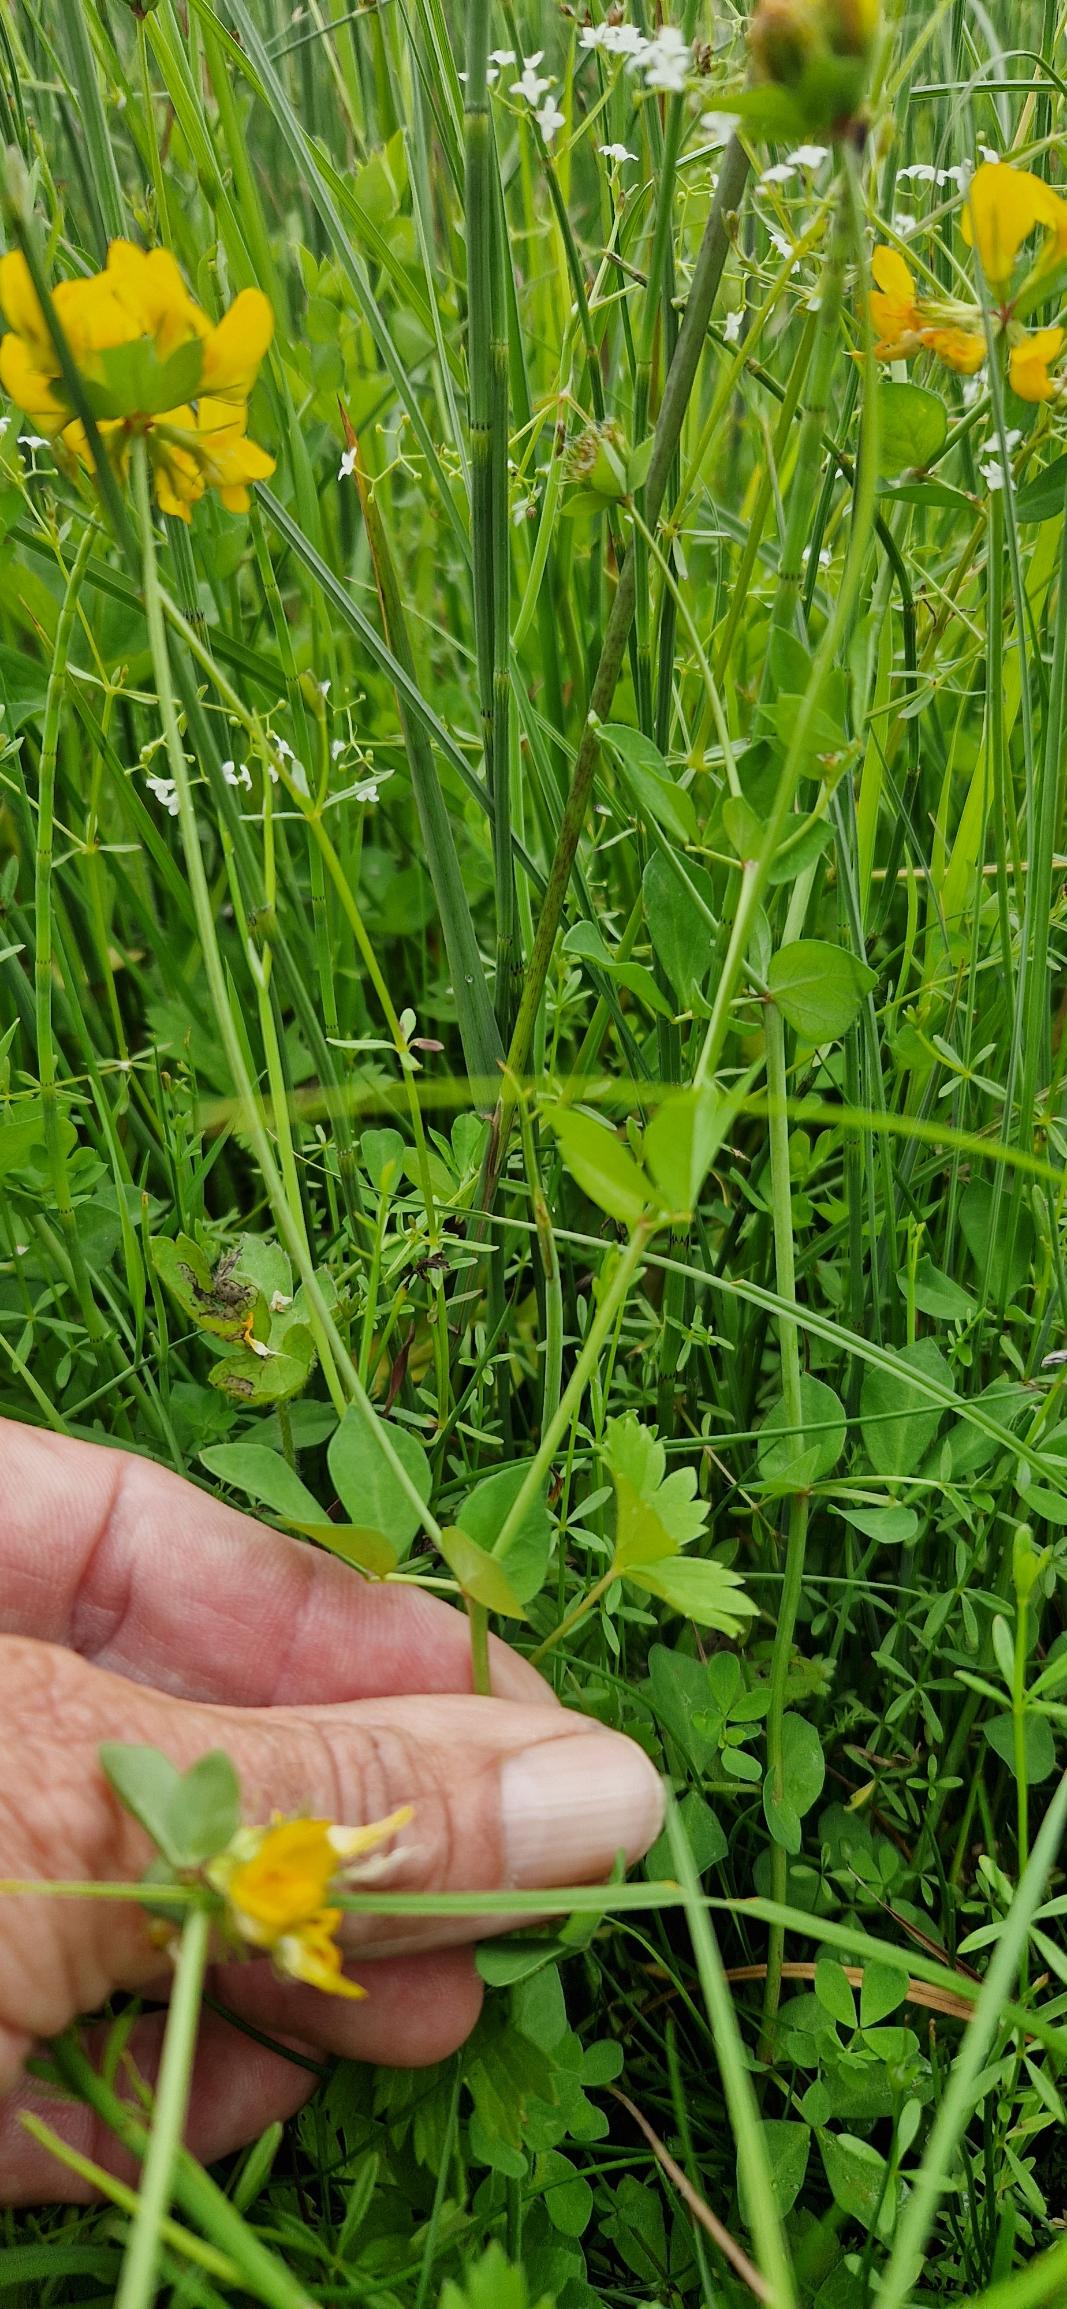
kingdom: Plantae
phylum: Tracheophyta
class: Magnoliopsida
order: Fabales
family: Fabaceae
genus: Lotus
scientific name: Lotus pedunculatus
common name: Sump-kællingetand
